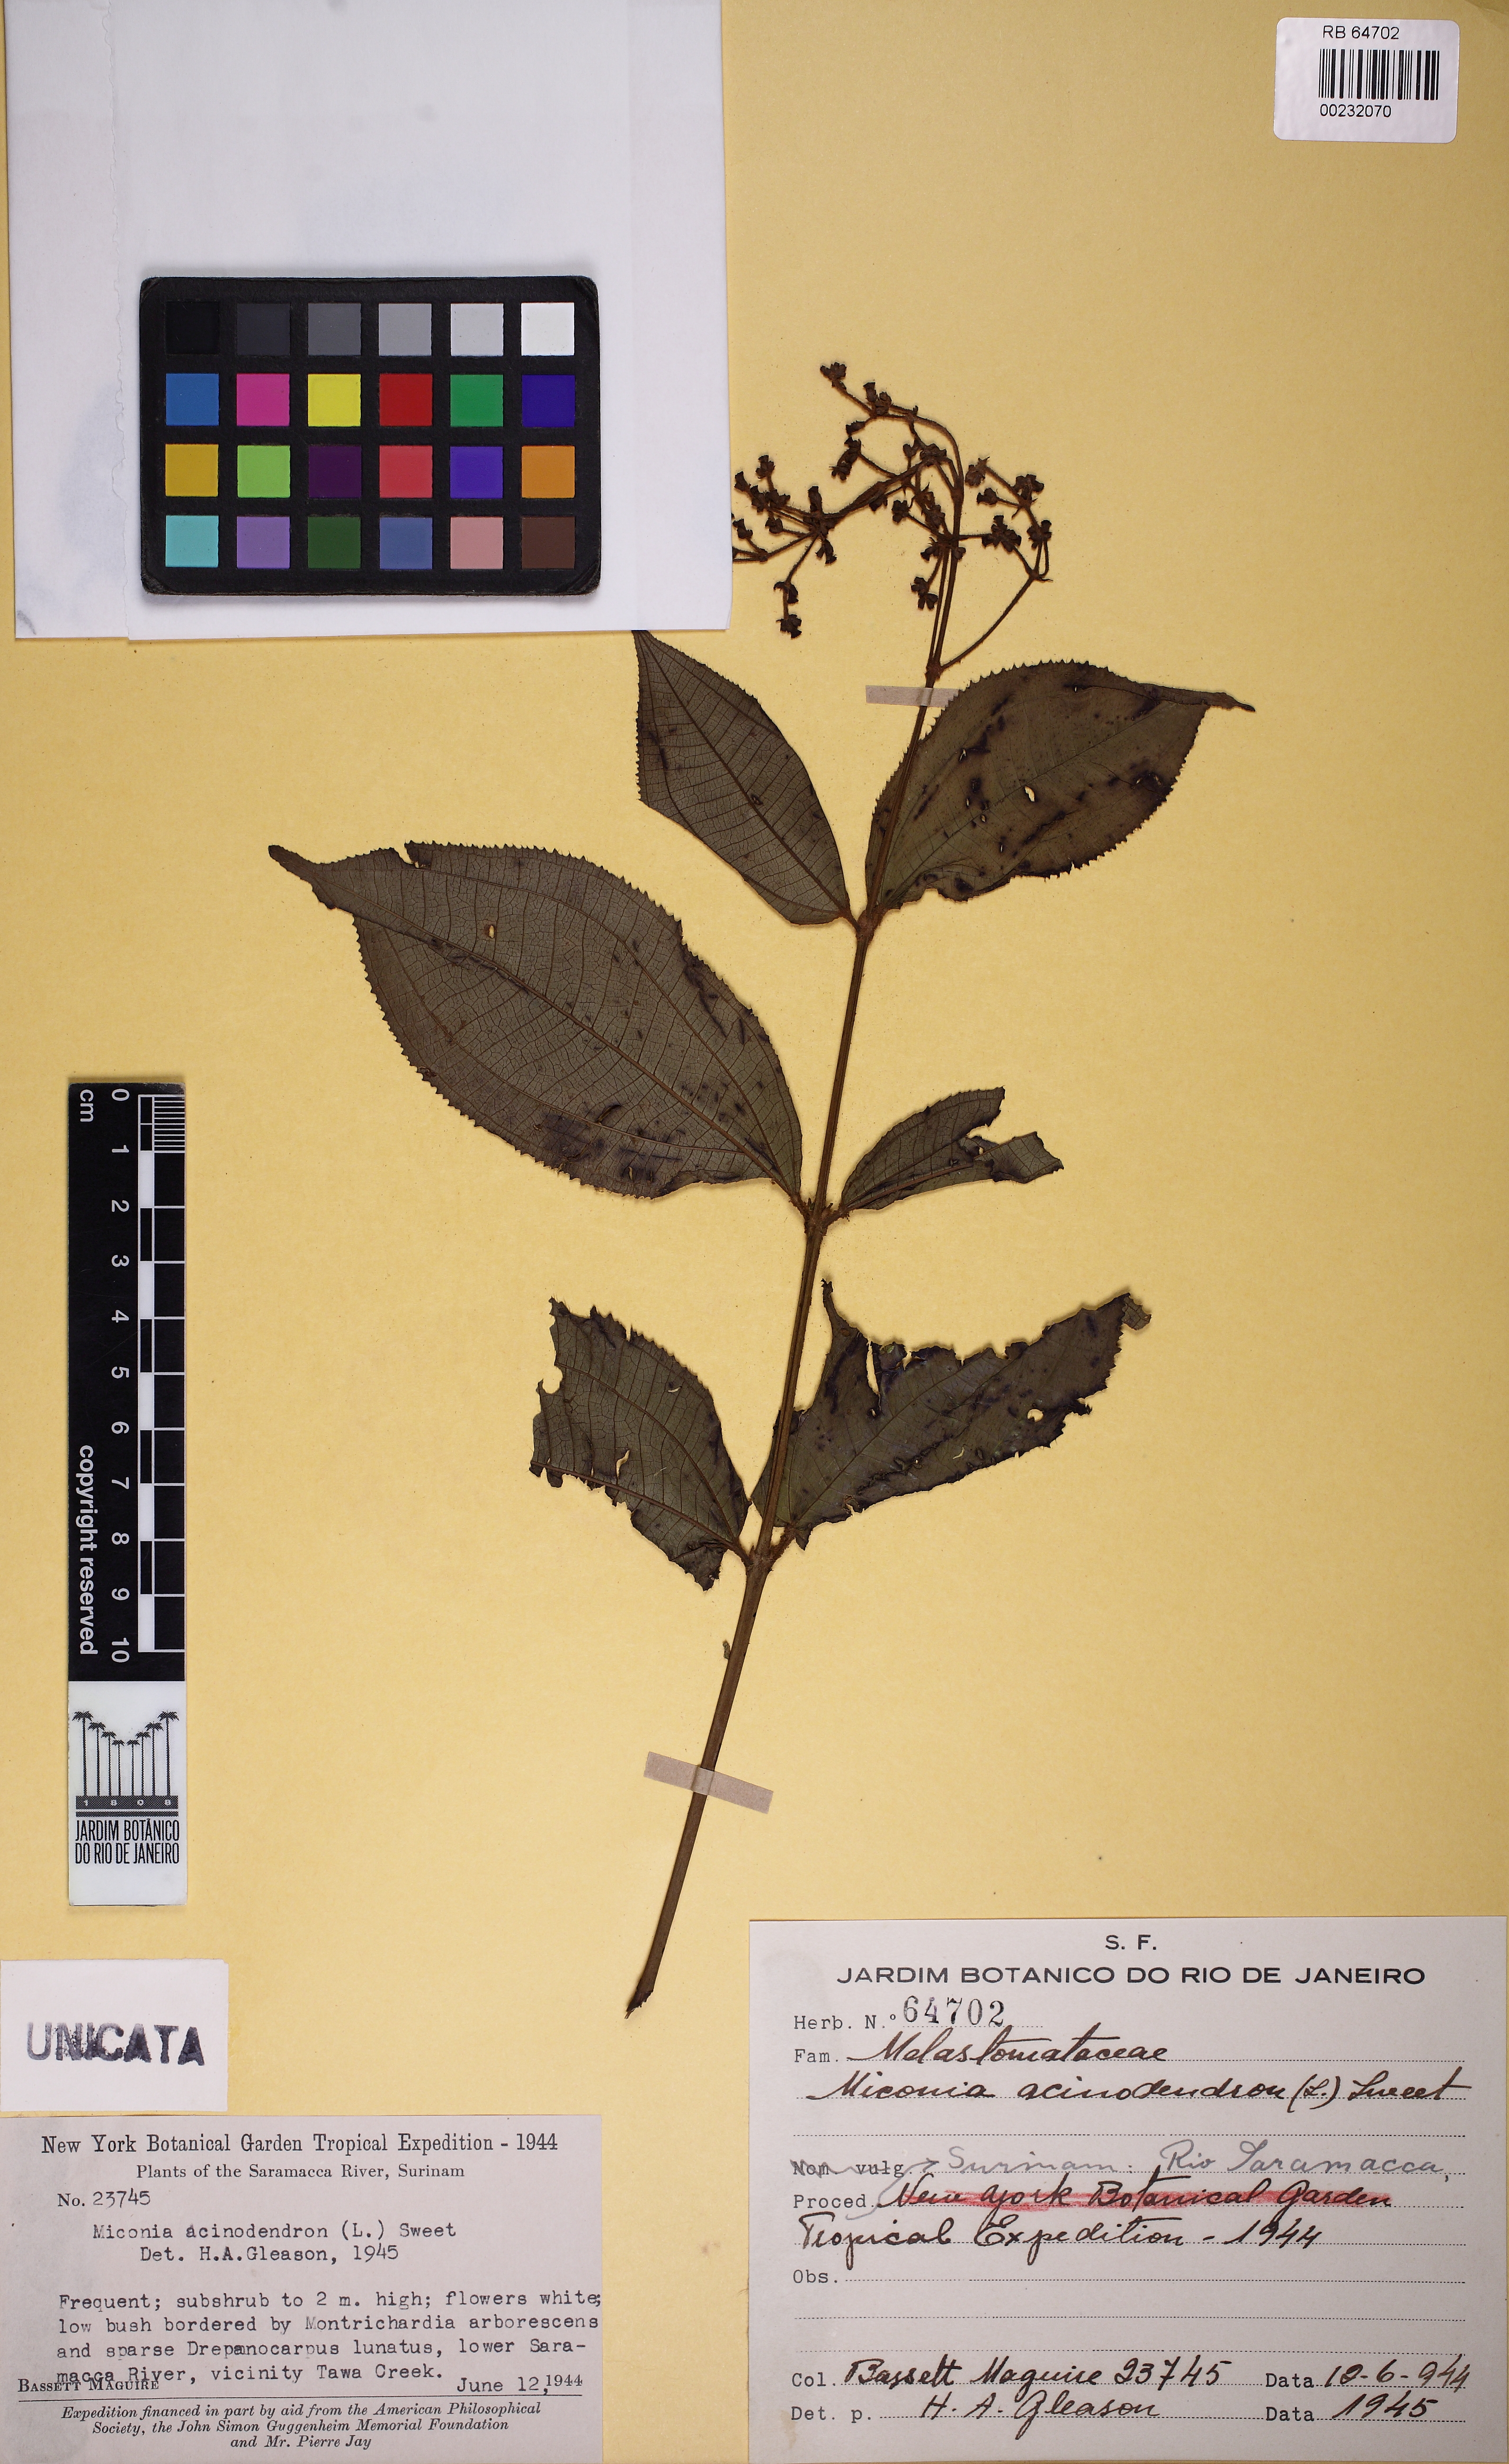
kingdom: Plantae
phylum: Tracheophyta
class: Magnoliopsida
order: Myrtales
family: Melastomataceae
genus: Miconia
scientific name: Miconia acinodendron
